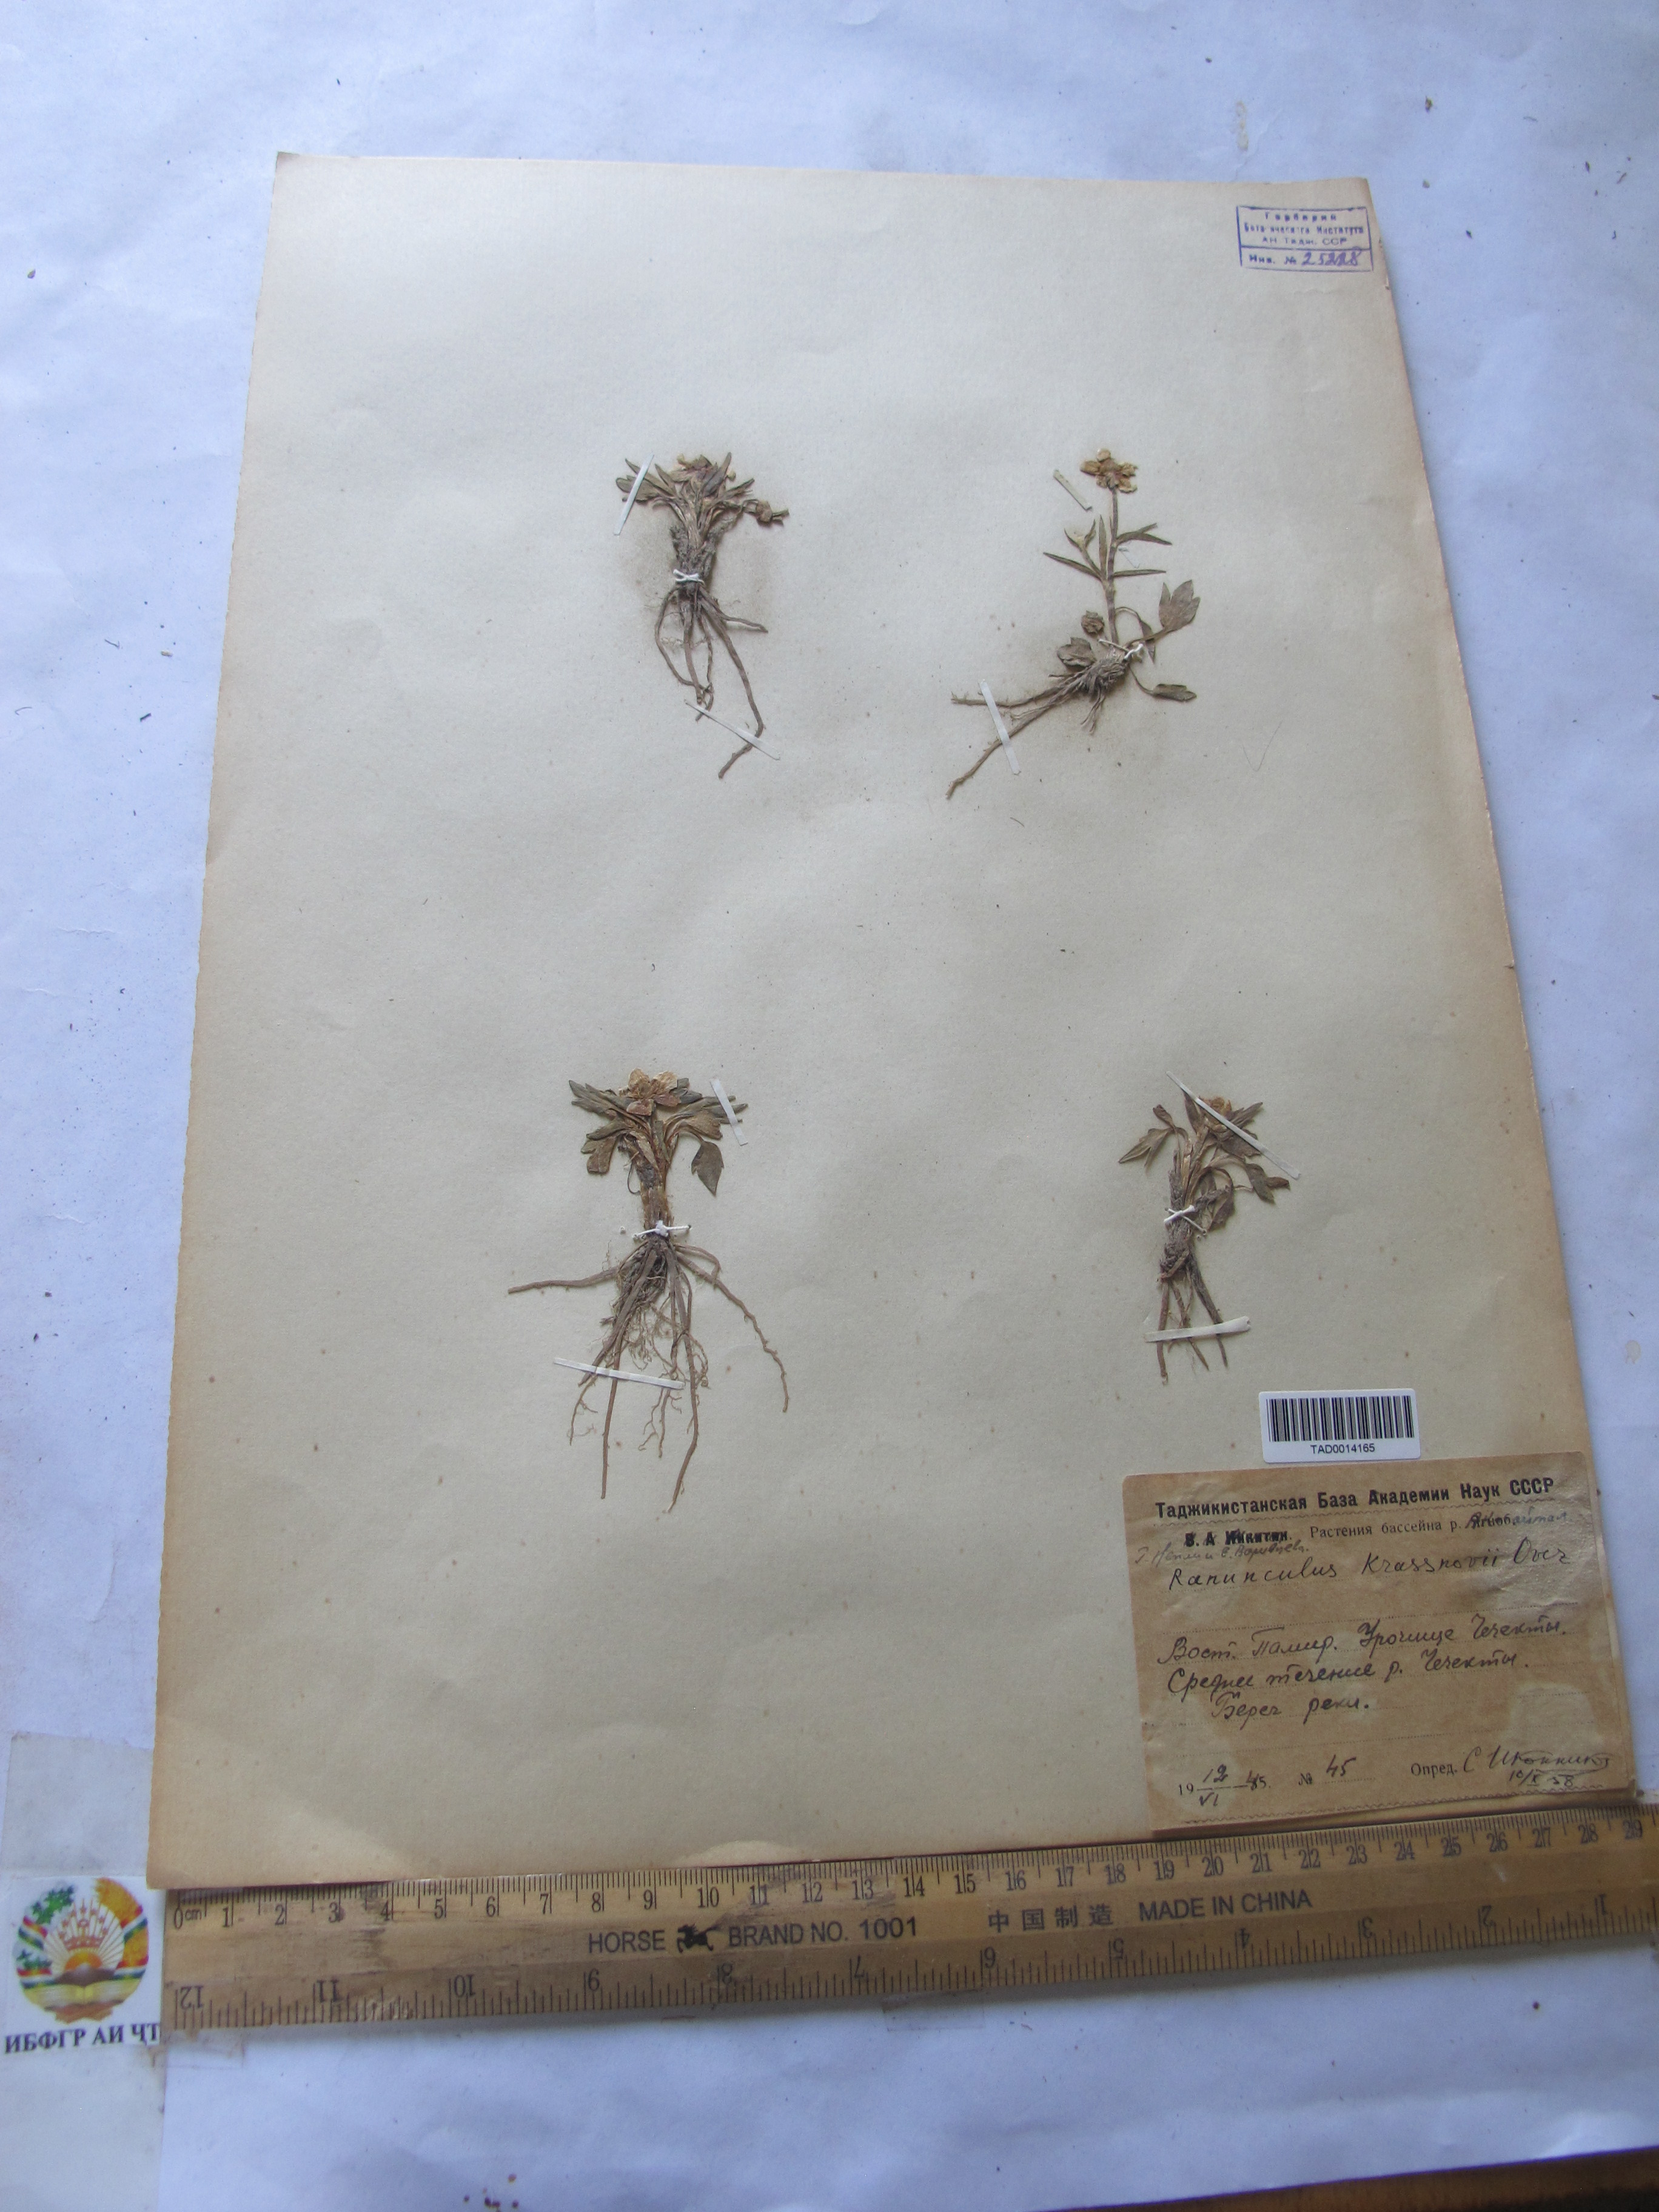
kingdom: Plantae
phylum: Tracheophyta
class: Magnoliopsida
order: Ranunculales
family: Ranunculaceae
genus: Ranunculus
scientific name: Ranunculus krassnovii
